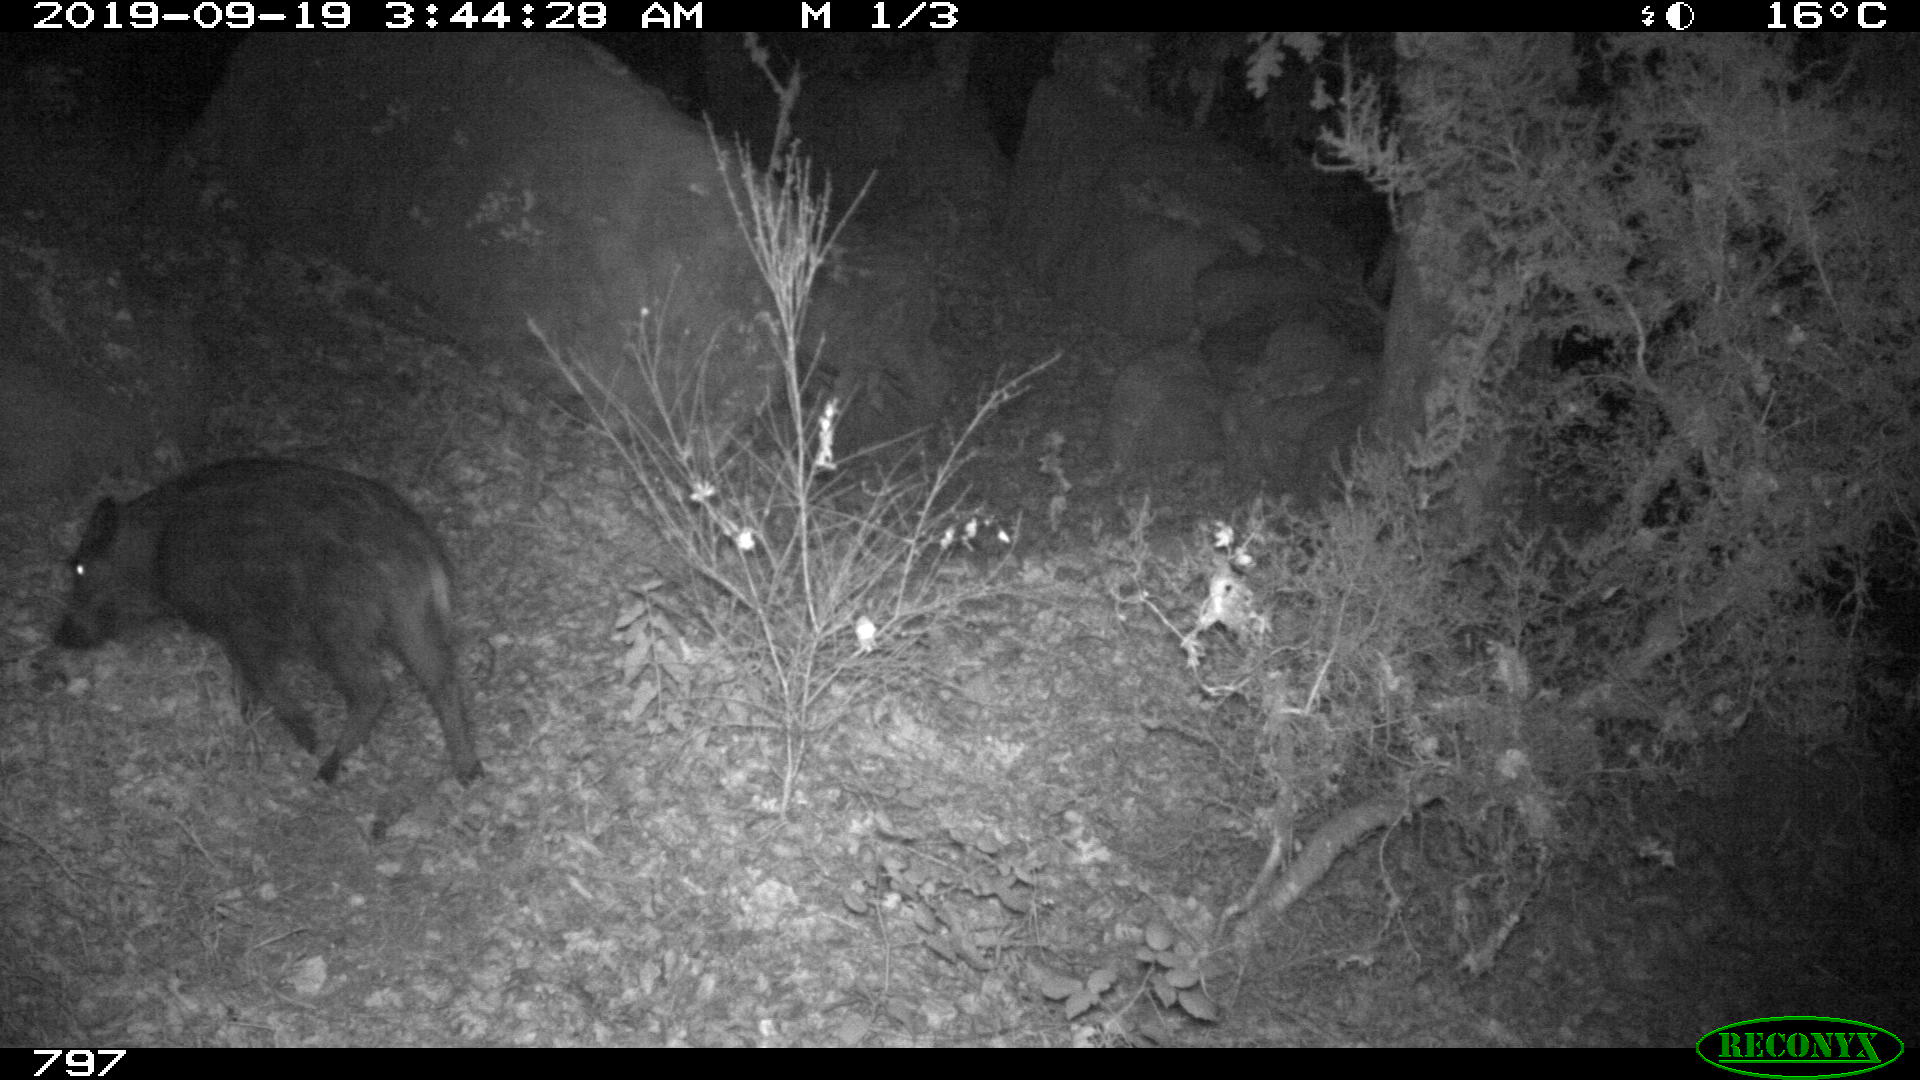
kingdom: Animalia
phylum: Chordata
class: Mammalia
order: Artiodactyla
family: Suidae
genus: Sus
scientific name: Sus scrofa
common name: Wild boar
